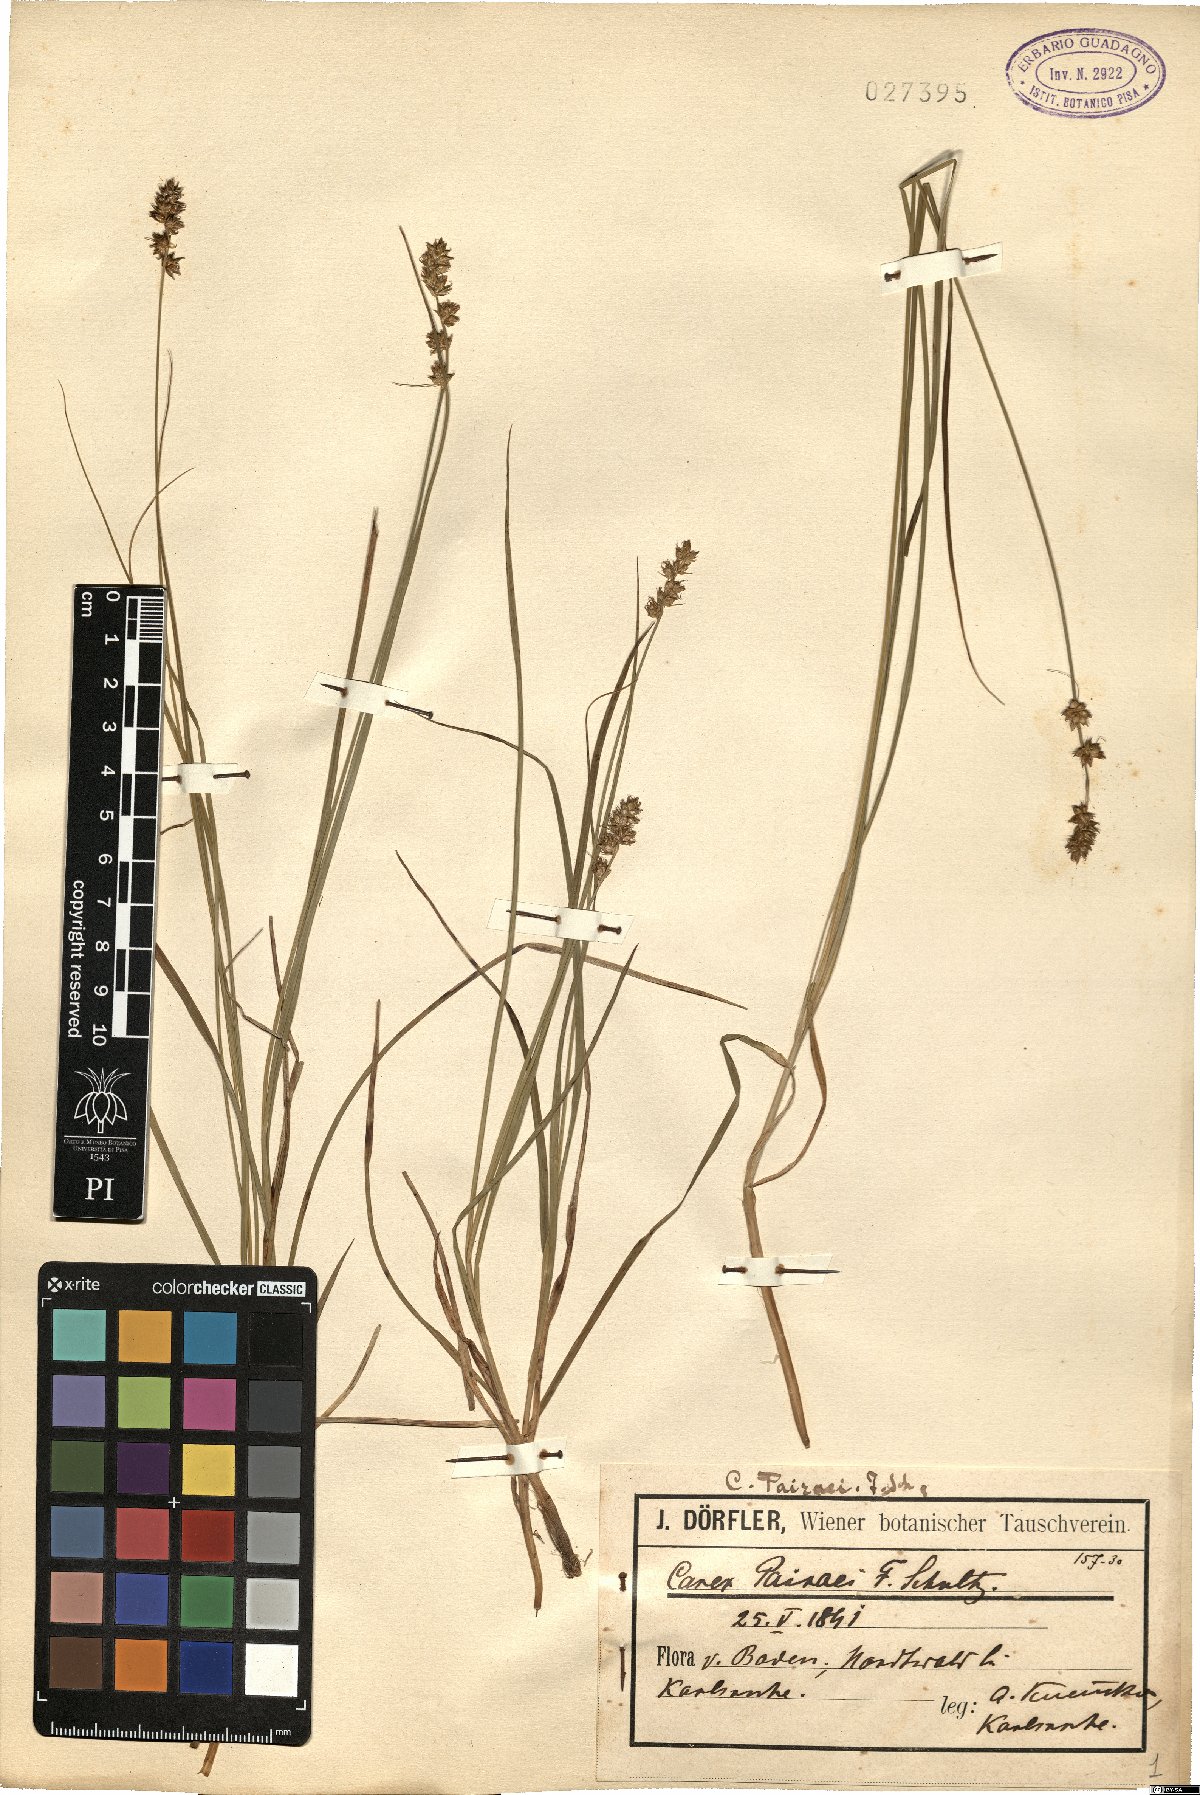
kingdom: Plantae
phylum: Tracheophyta
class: Liliopsida
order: Poales
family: Cyperaceae
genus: Carex
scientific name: Carex pairae
